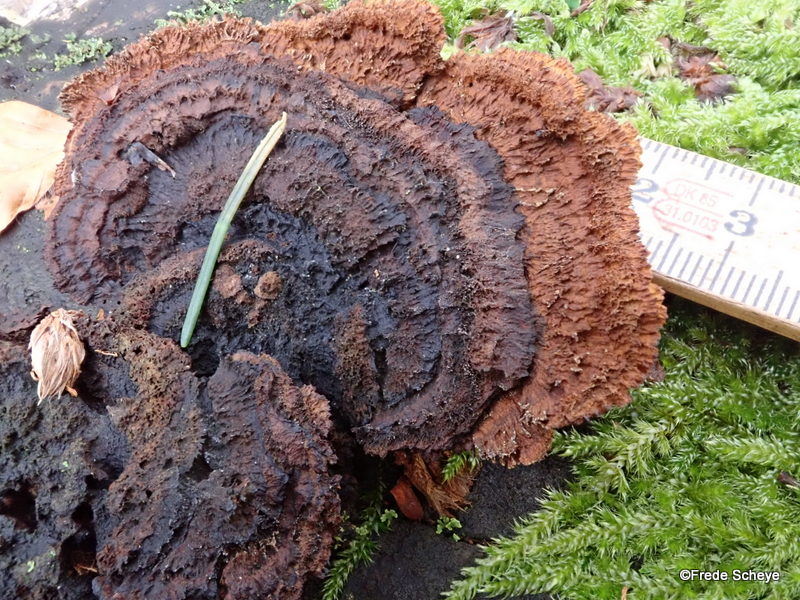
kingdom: Fungi
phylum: Basidiomycota
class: Agaricomycetes
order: Gloeophyllales
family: Gloeophyllaceae
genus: Gloeophyllum
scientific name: Gloeophyllum sepiarium
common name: fyrre-korkhat
